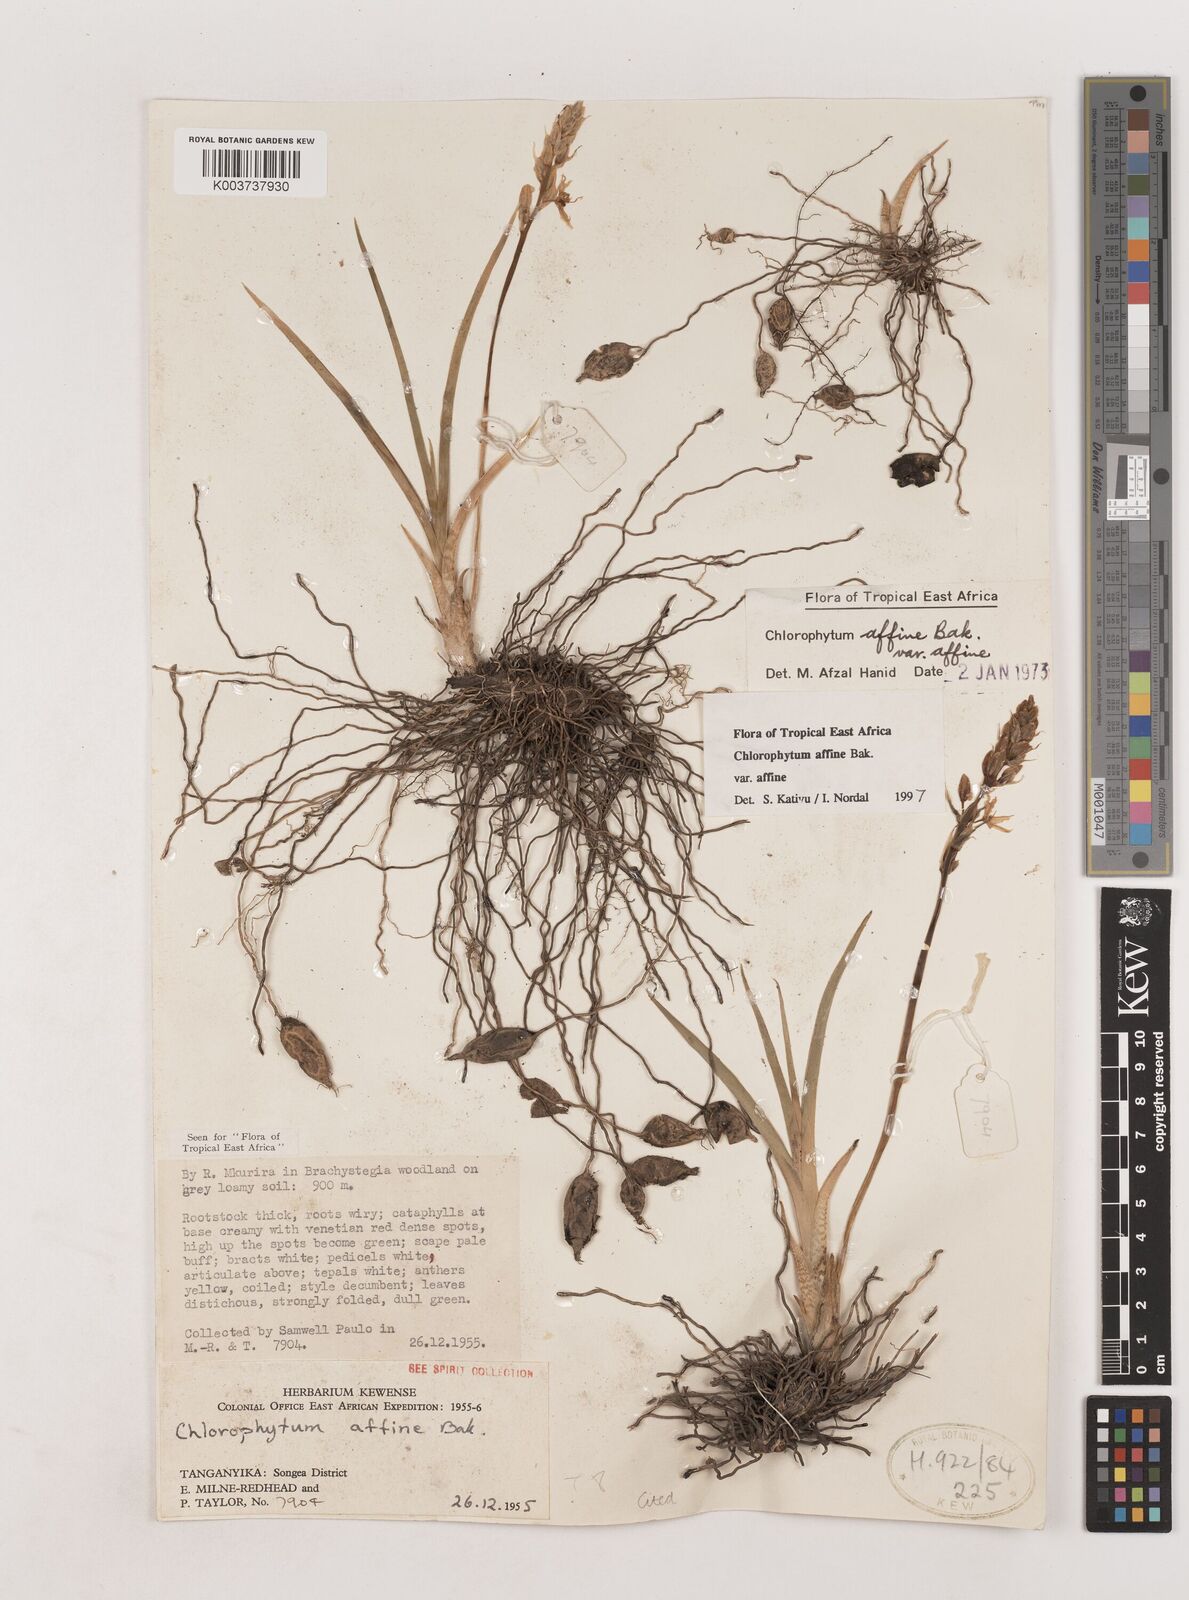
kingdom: Plantae
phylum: Tracheophyta
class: Liliopsida
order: Asparagales
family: Asparagaceae
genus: Chlorophytum
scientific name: Chlorophytum affine
